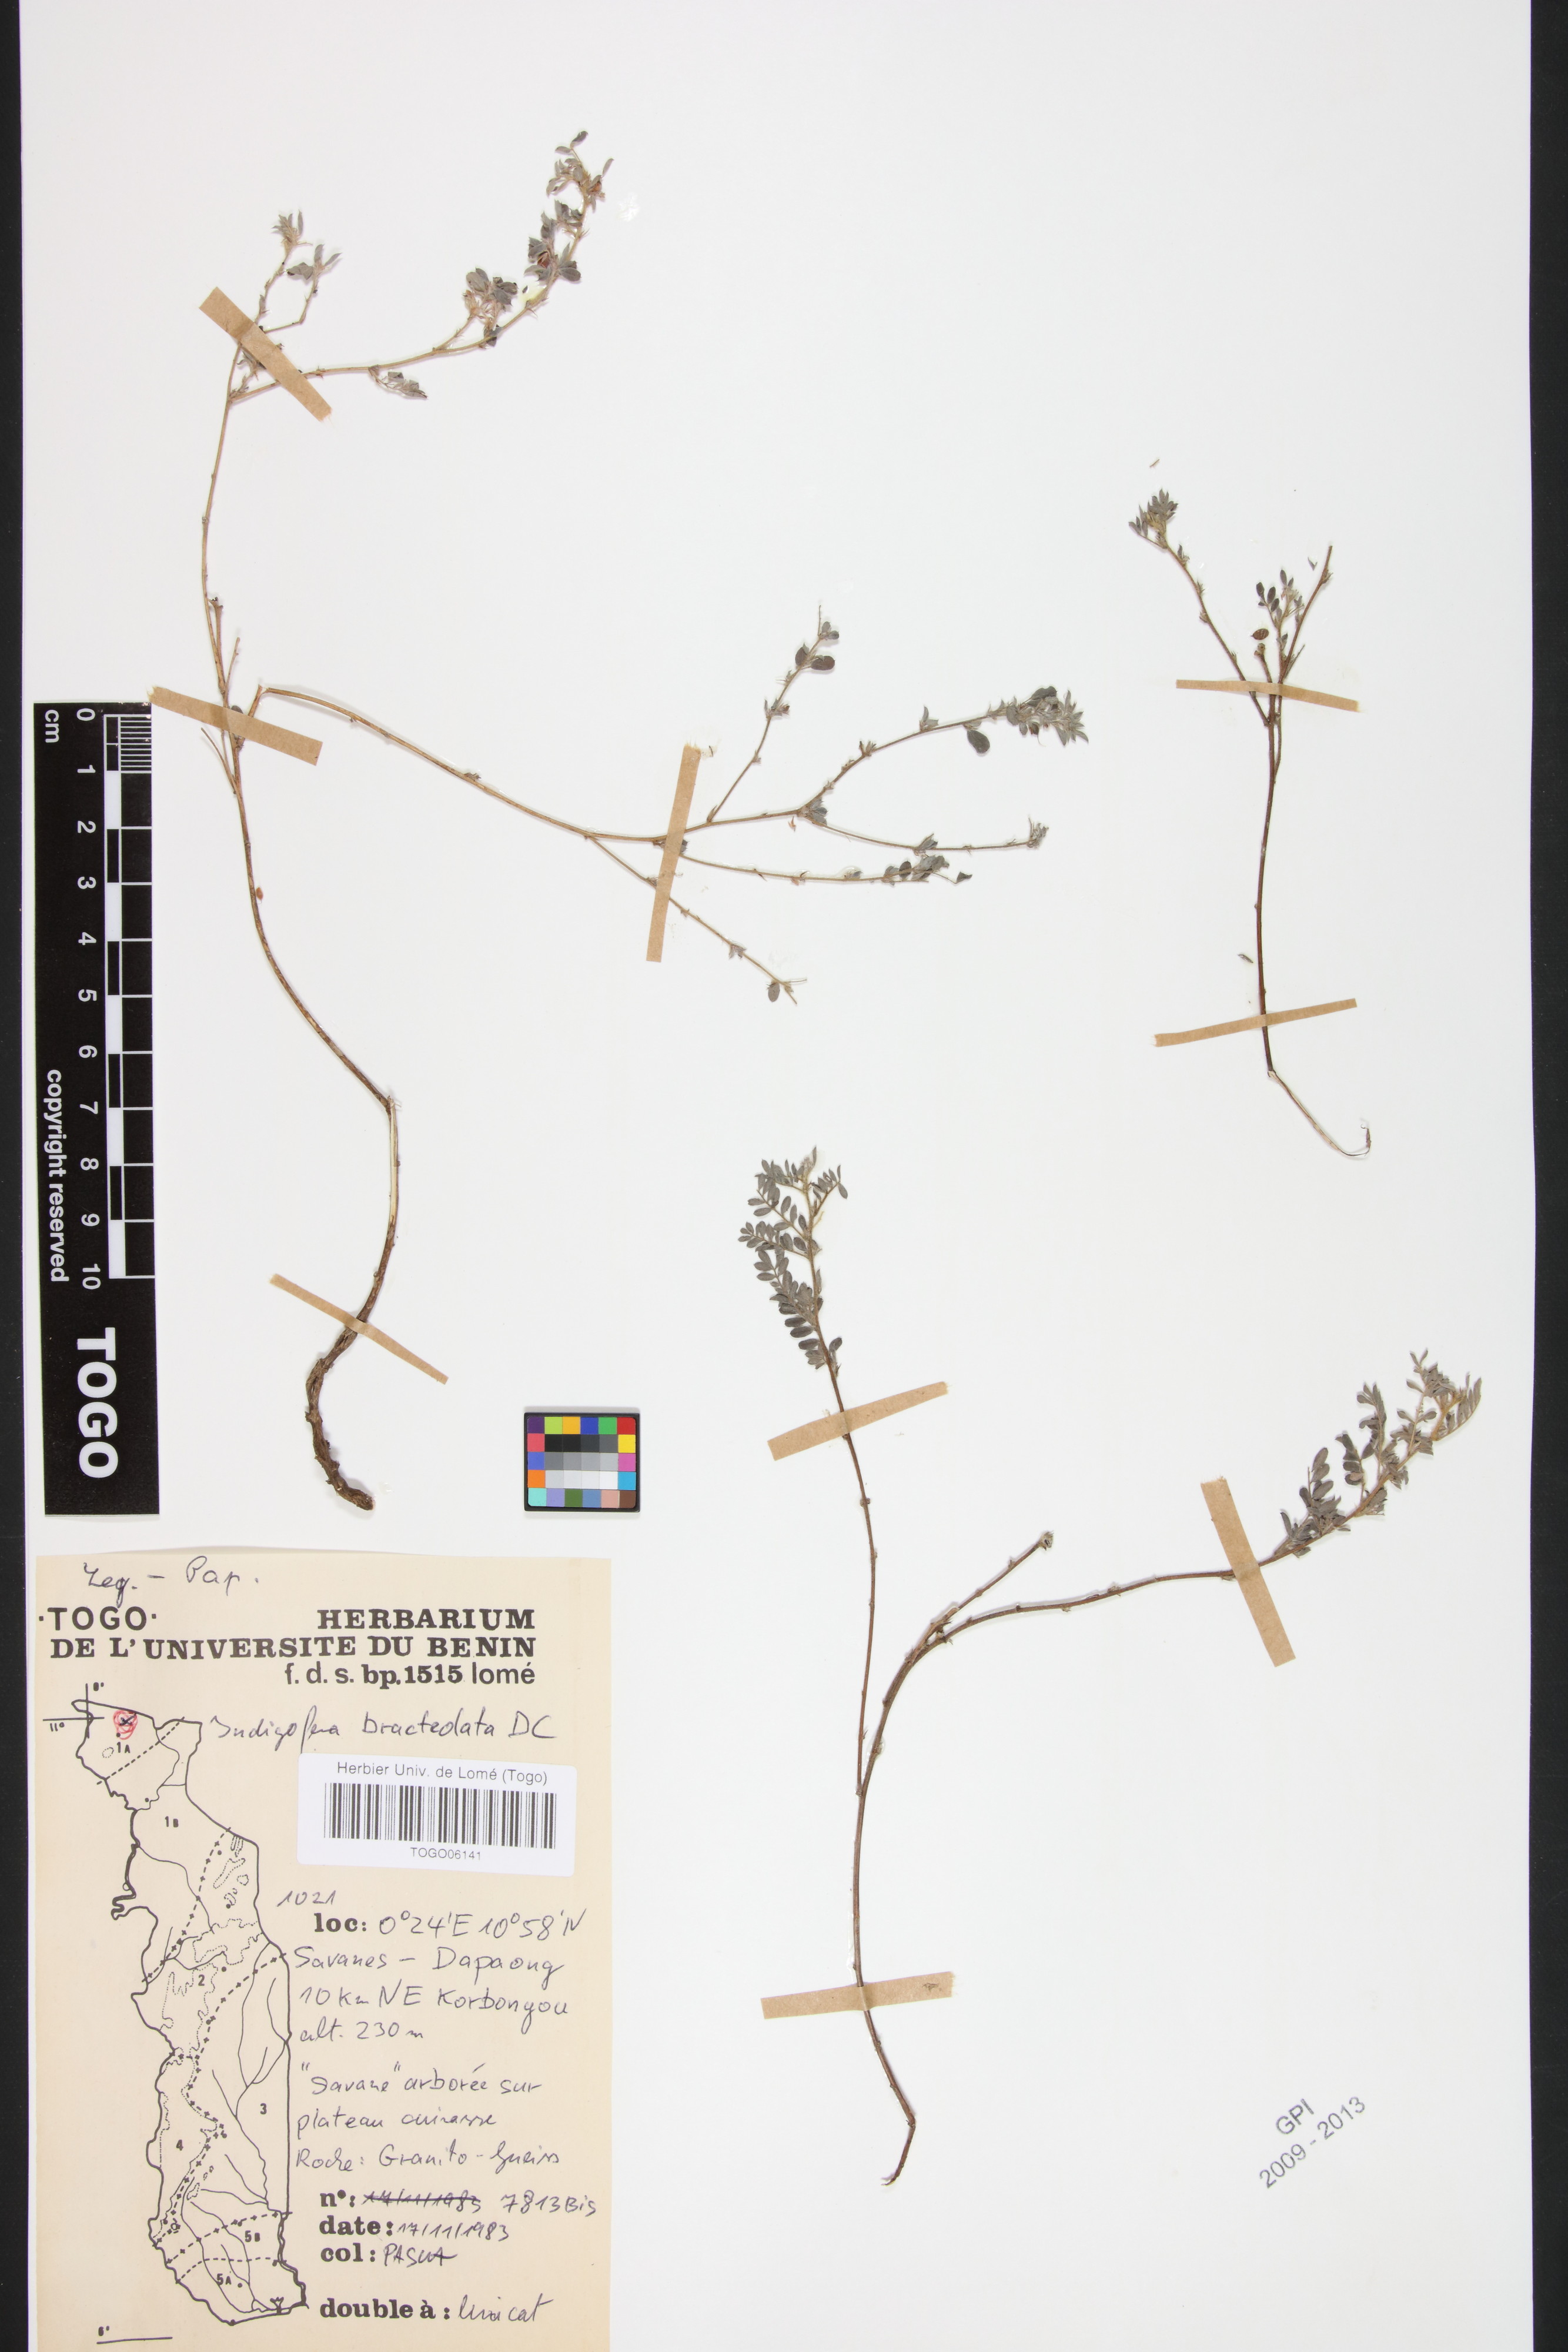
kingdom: Plantae
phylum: Tracheophyta
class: Magnoliopsida
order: Fabales
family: Fabaceae
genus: Indigofera
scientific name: Indigofera bracteolata
